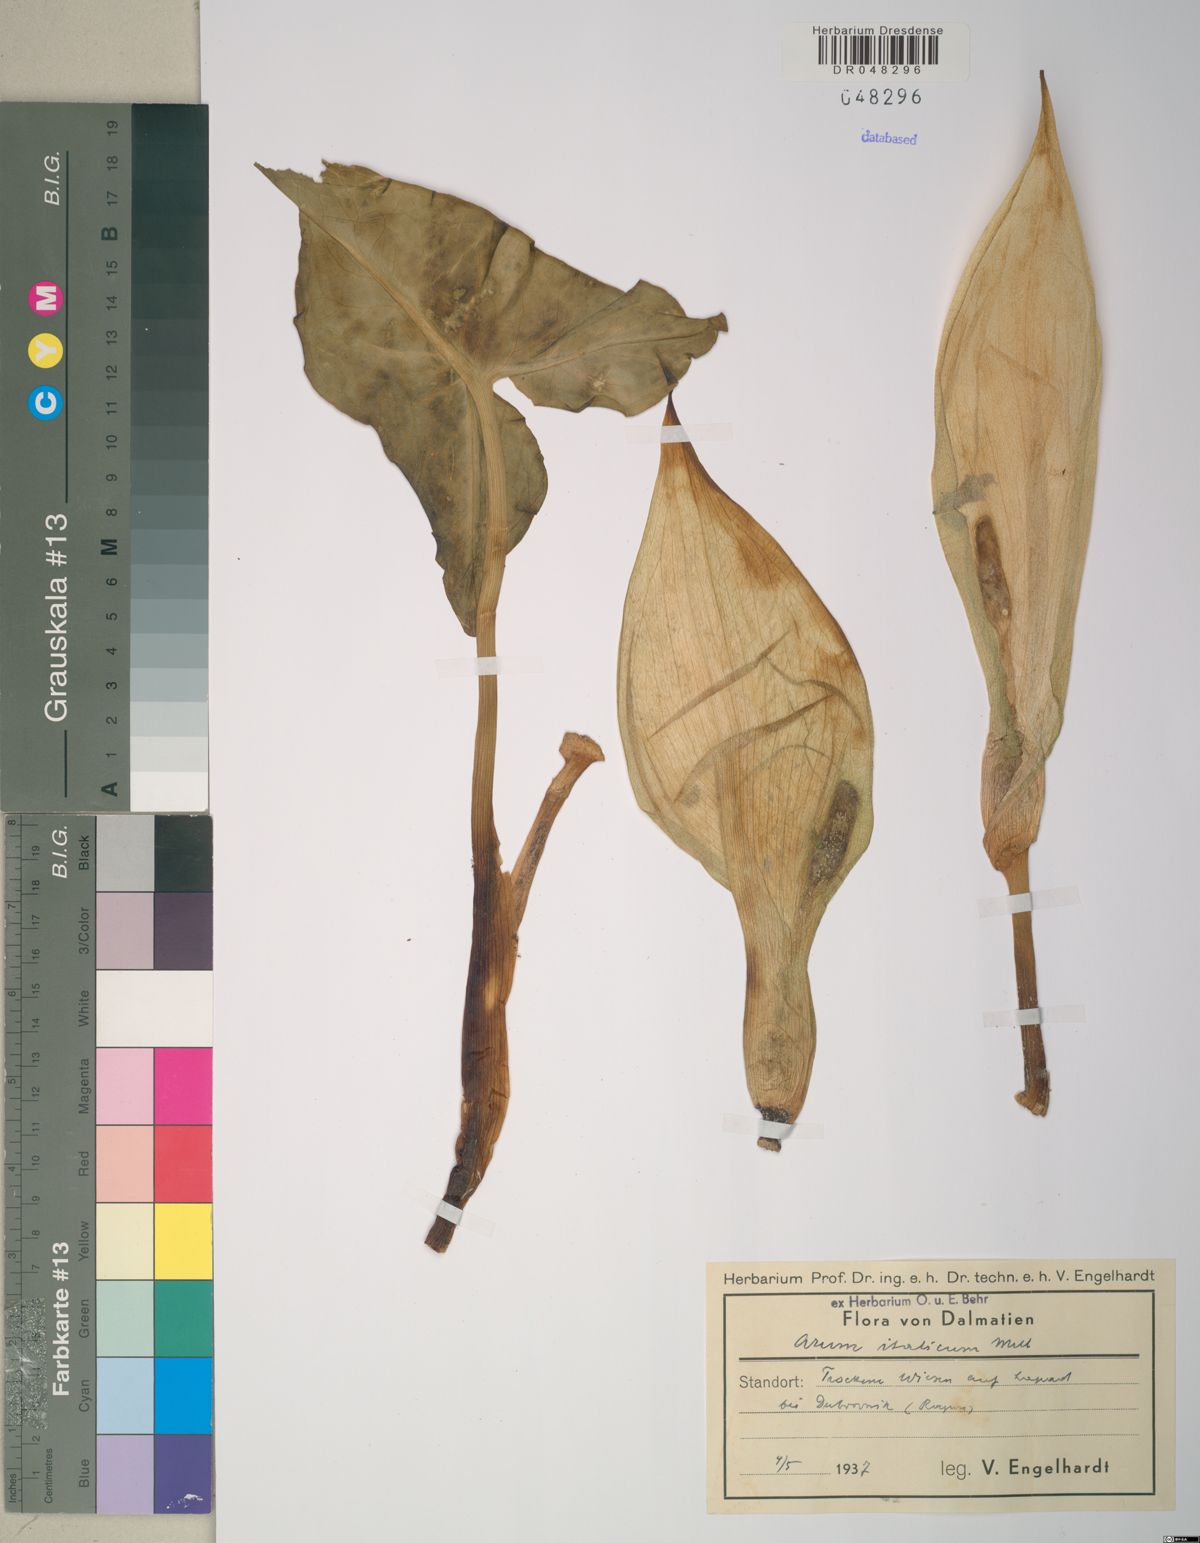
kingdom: Plantae
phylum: Tracheophyta
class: Liliopsida
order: Alismatales
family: Araceae
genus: Arum
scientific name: Arum italicum
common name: Italian lords-and-ladies
